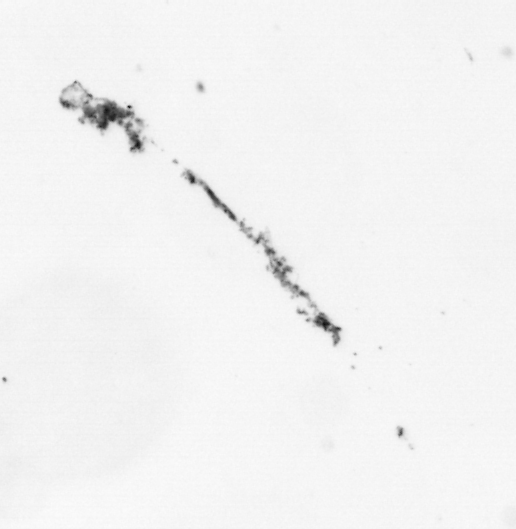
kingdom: Chromista
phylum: Ochrophyta
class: Bacillariophyceae
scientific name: Bacillariophyceae
